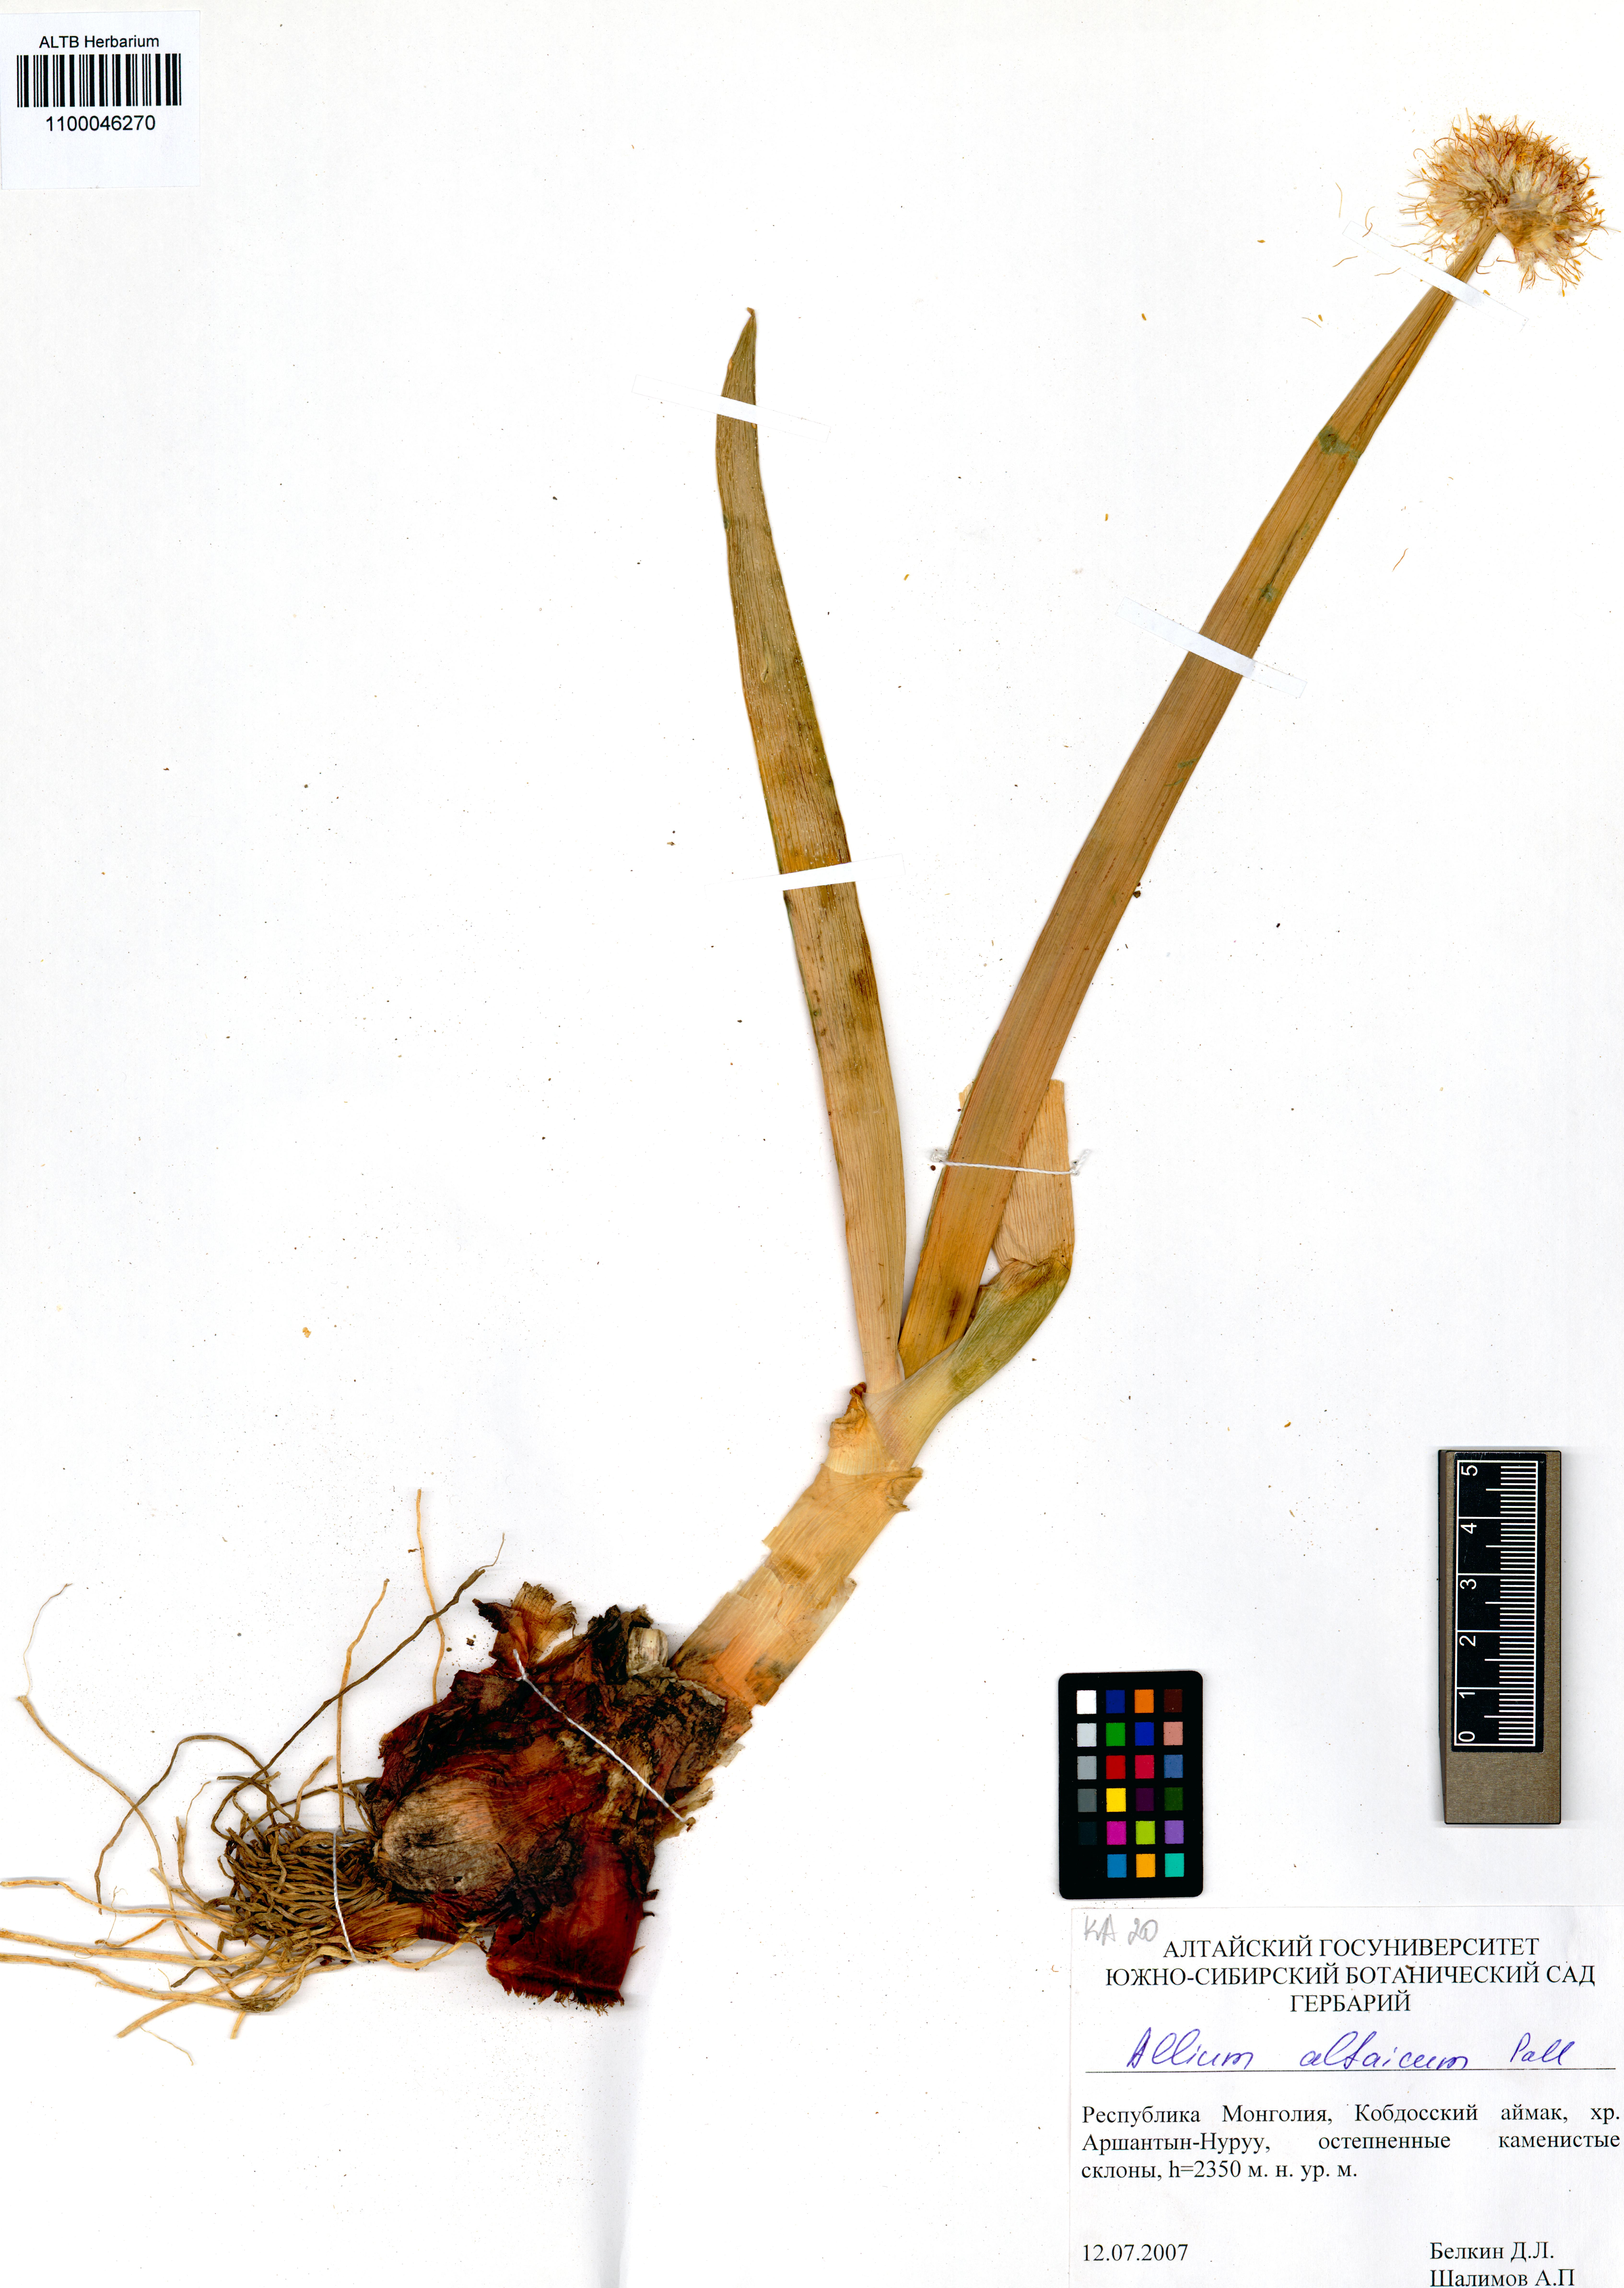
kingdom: Plantae
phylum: Tracheophyta
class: Liliopsida
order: Asparagales
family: Amaryllidaceae
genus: Allium
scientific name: Allium altaicum
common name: Altai onion
